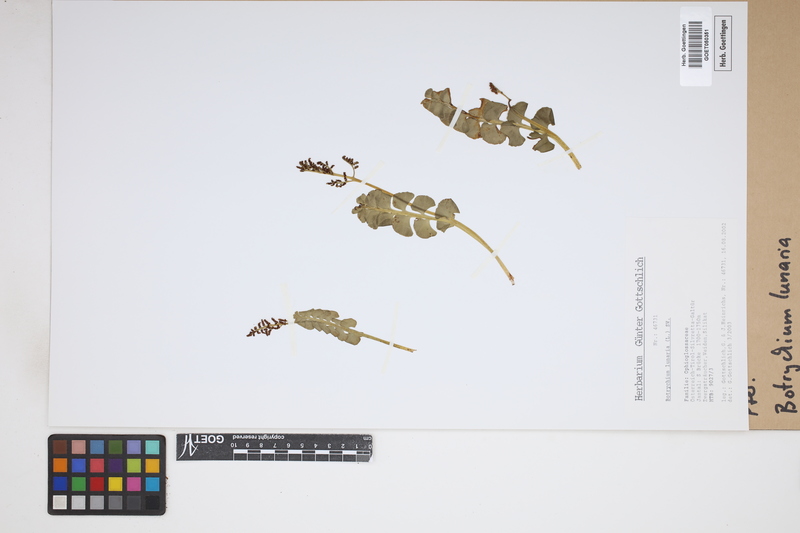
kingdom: Plantae
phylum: Tracheophyta
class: Polypodiopsida
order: Ophioglossales
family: Ophioglossaceae
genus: Botrychium
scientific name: Botrychium lunaria
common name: Moonwort
